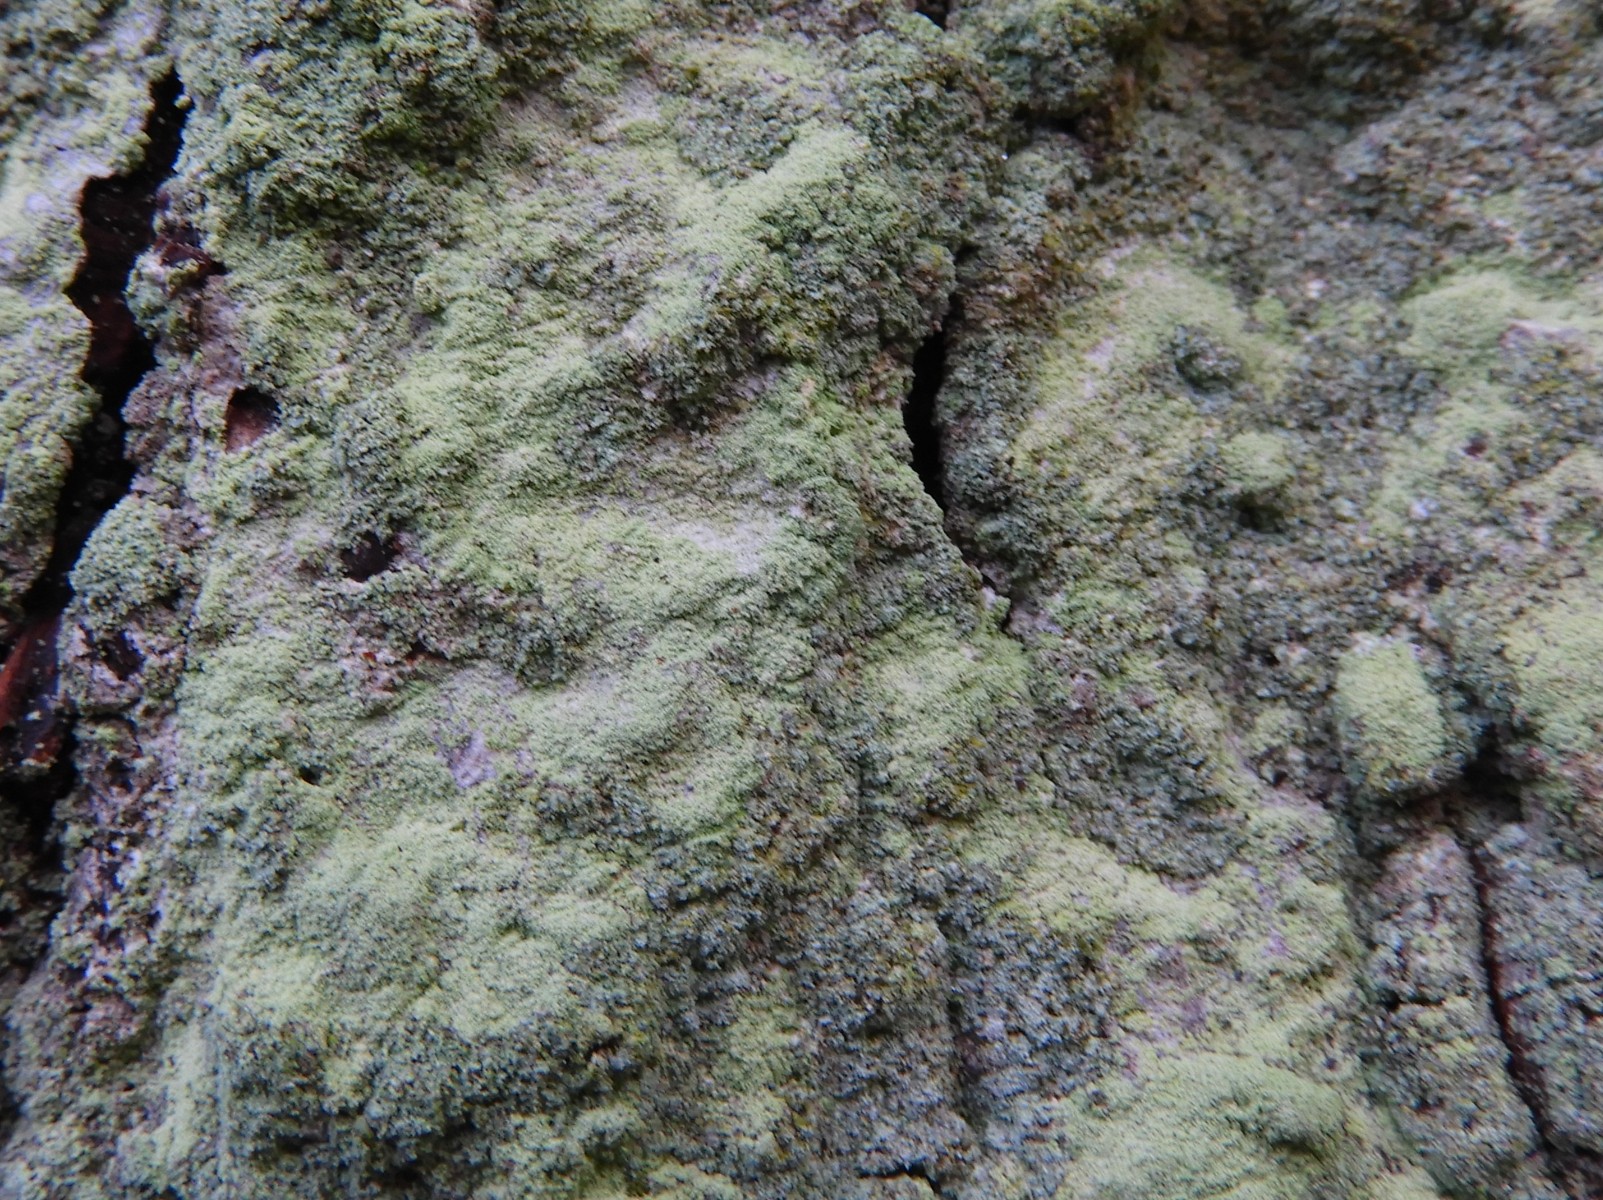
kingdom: Fungi
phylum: Ascomycota
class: Lecanoromycetes
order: Ostropales
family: Phlyctidaceae
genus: Phlyctis
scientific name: Phlyctis argena
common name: almindelig sølvlav
